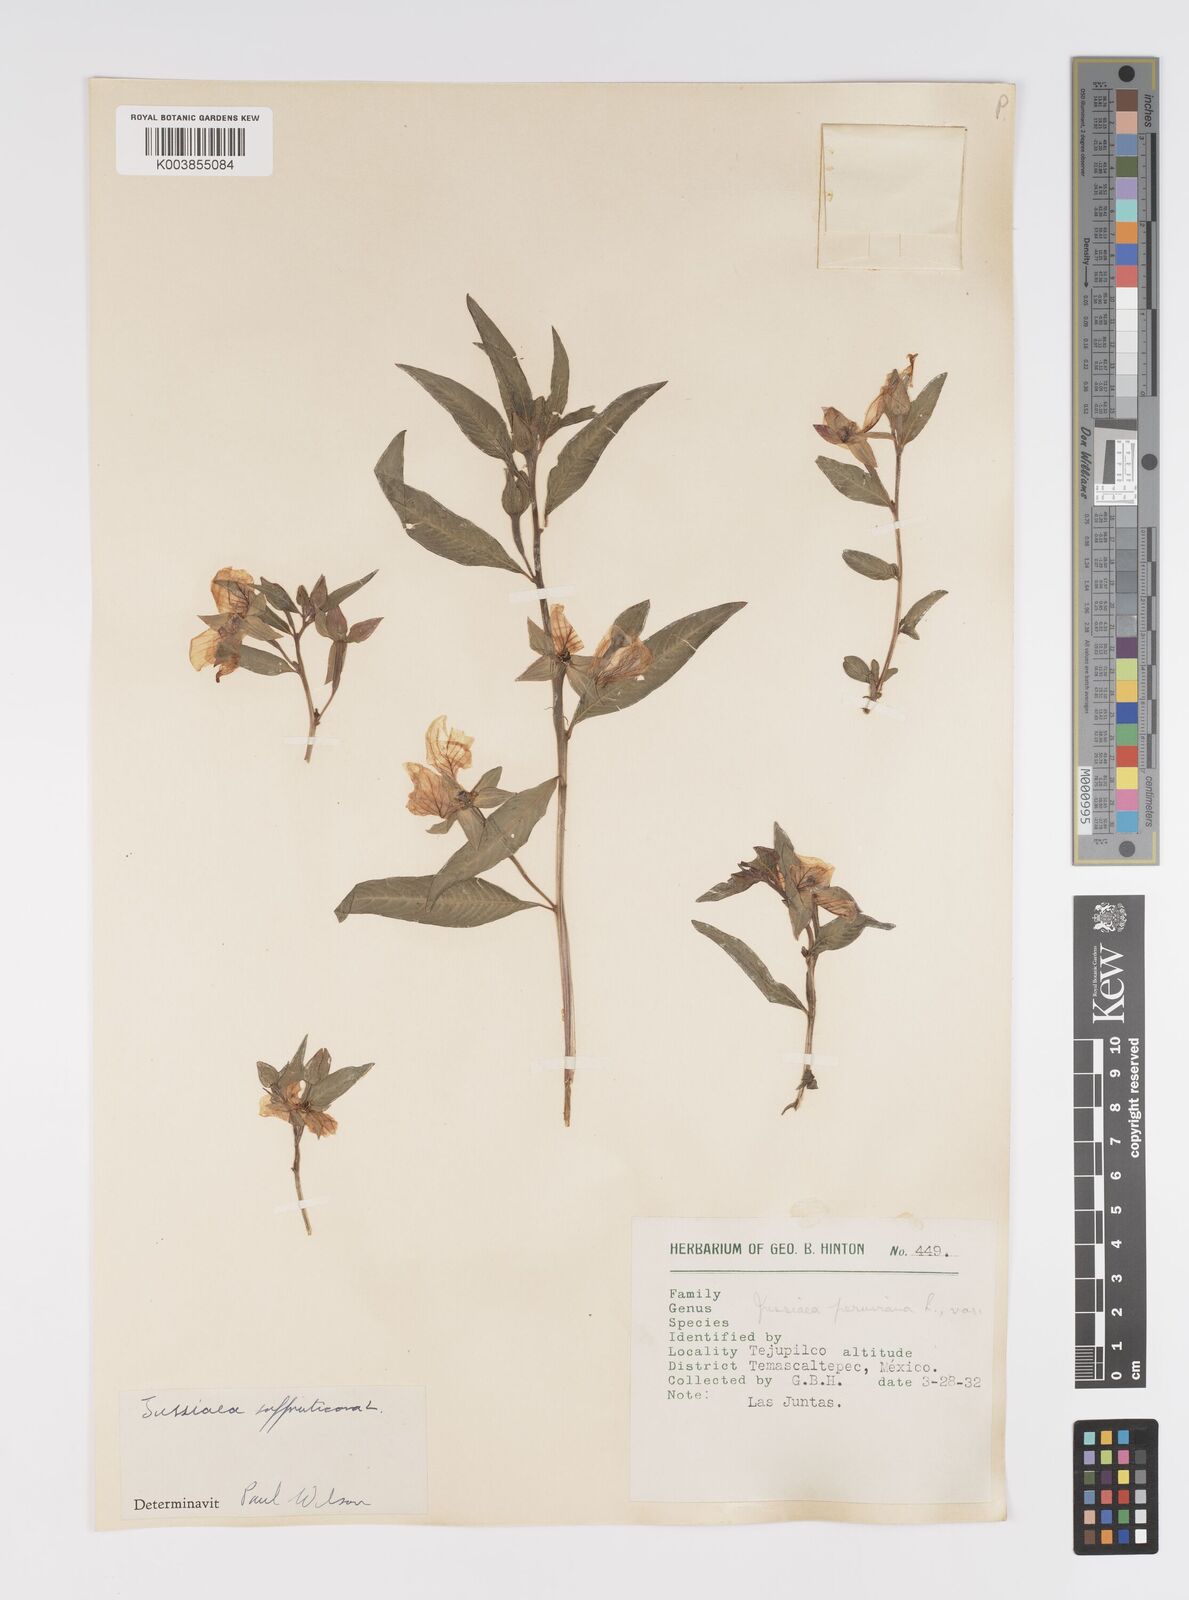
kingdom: Plantae
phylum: Tracheophyta
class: Magnoliopsida
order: Myrtales
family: Onagraceae
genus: Ludwigia
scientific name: Ludwigia octovalvis
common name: Water-primrose
